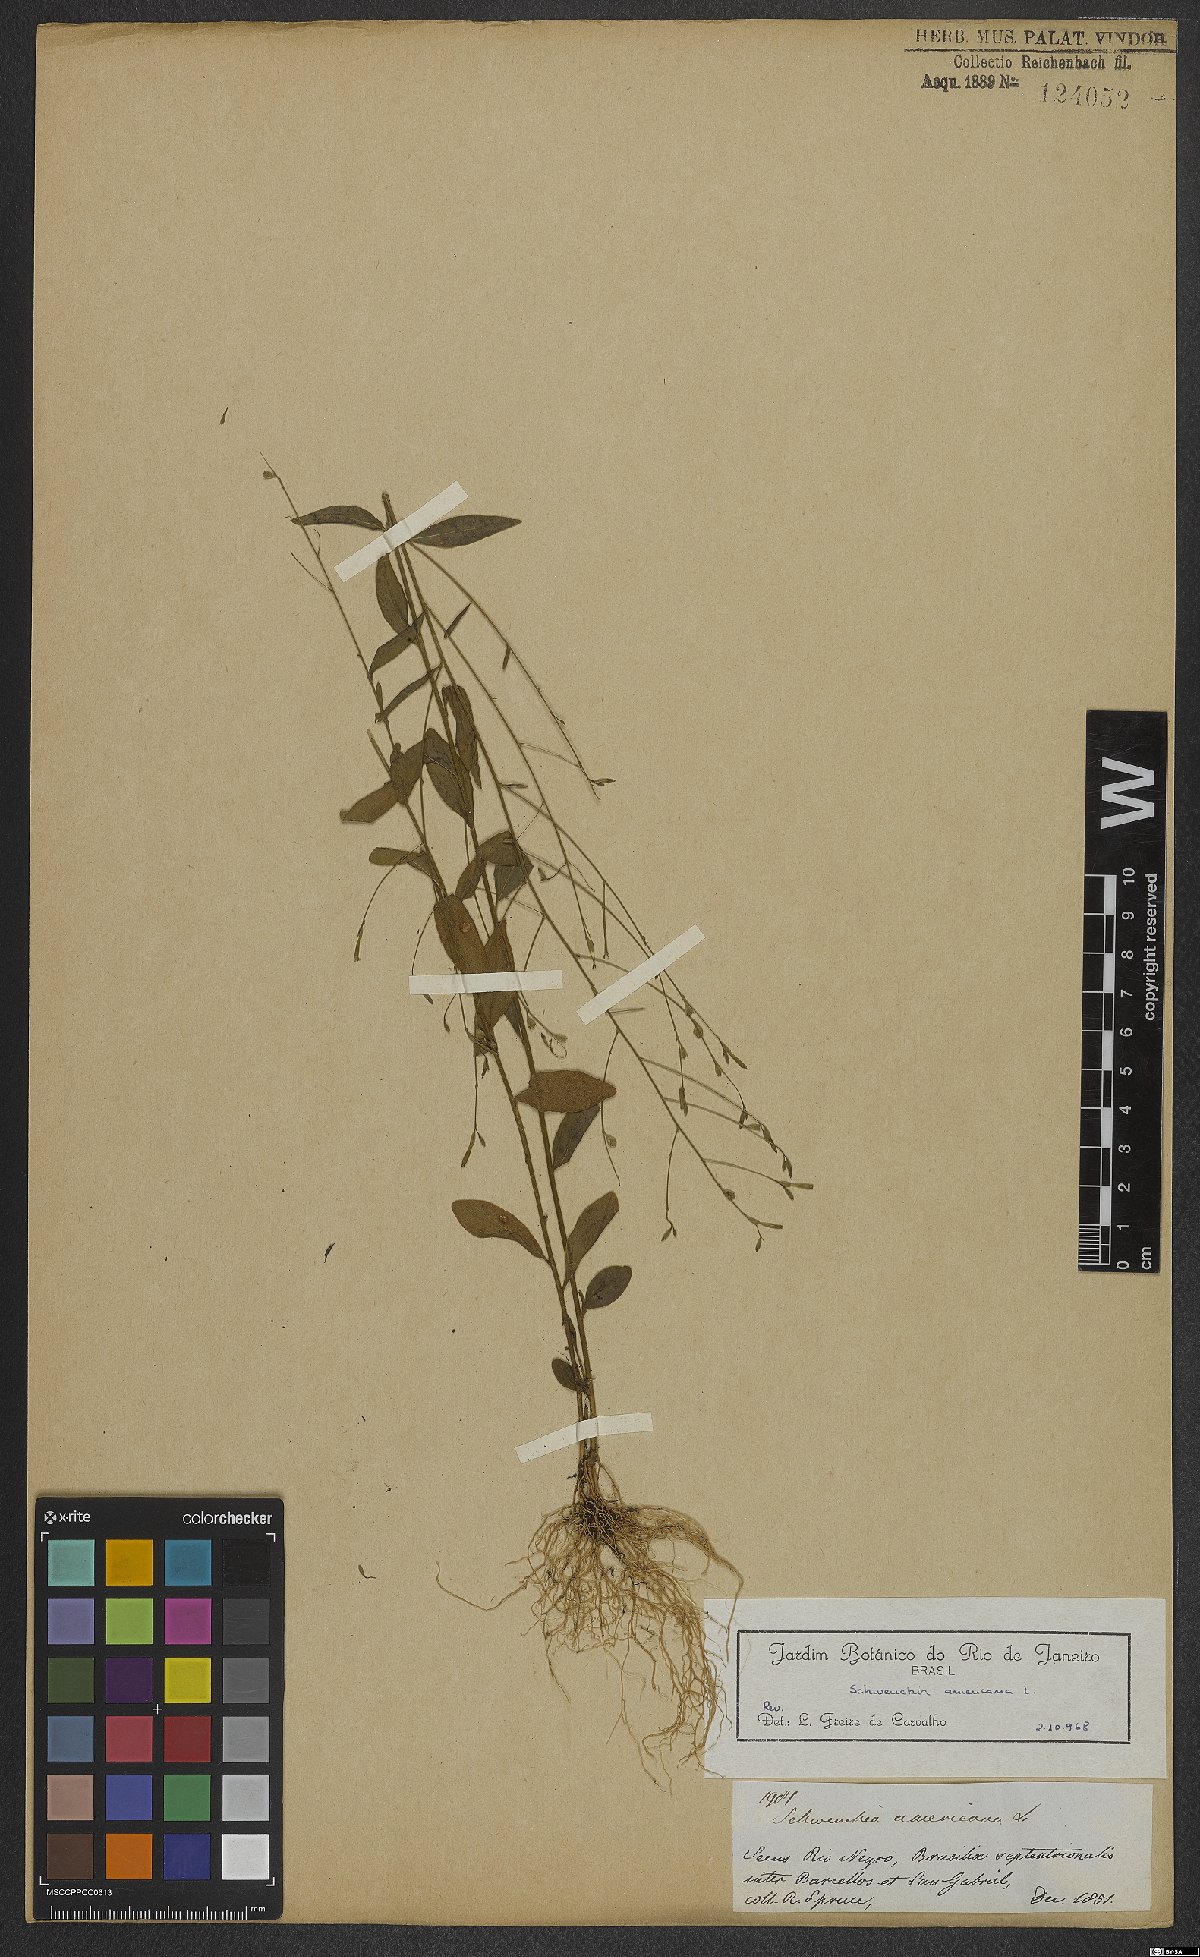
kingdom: Plantae
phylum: Tracheophyta
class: Magnoliopsida
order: Solanales
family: Solanaceae
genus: Schwenckia
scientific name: Schwenckia americana
